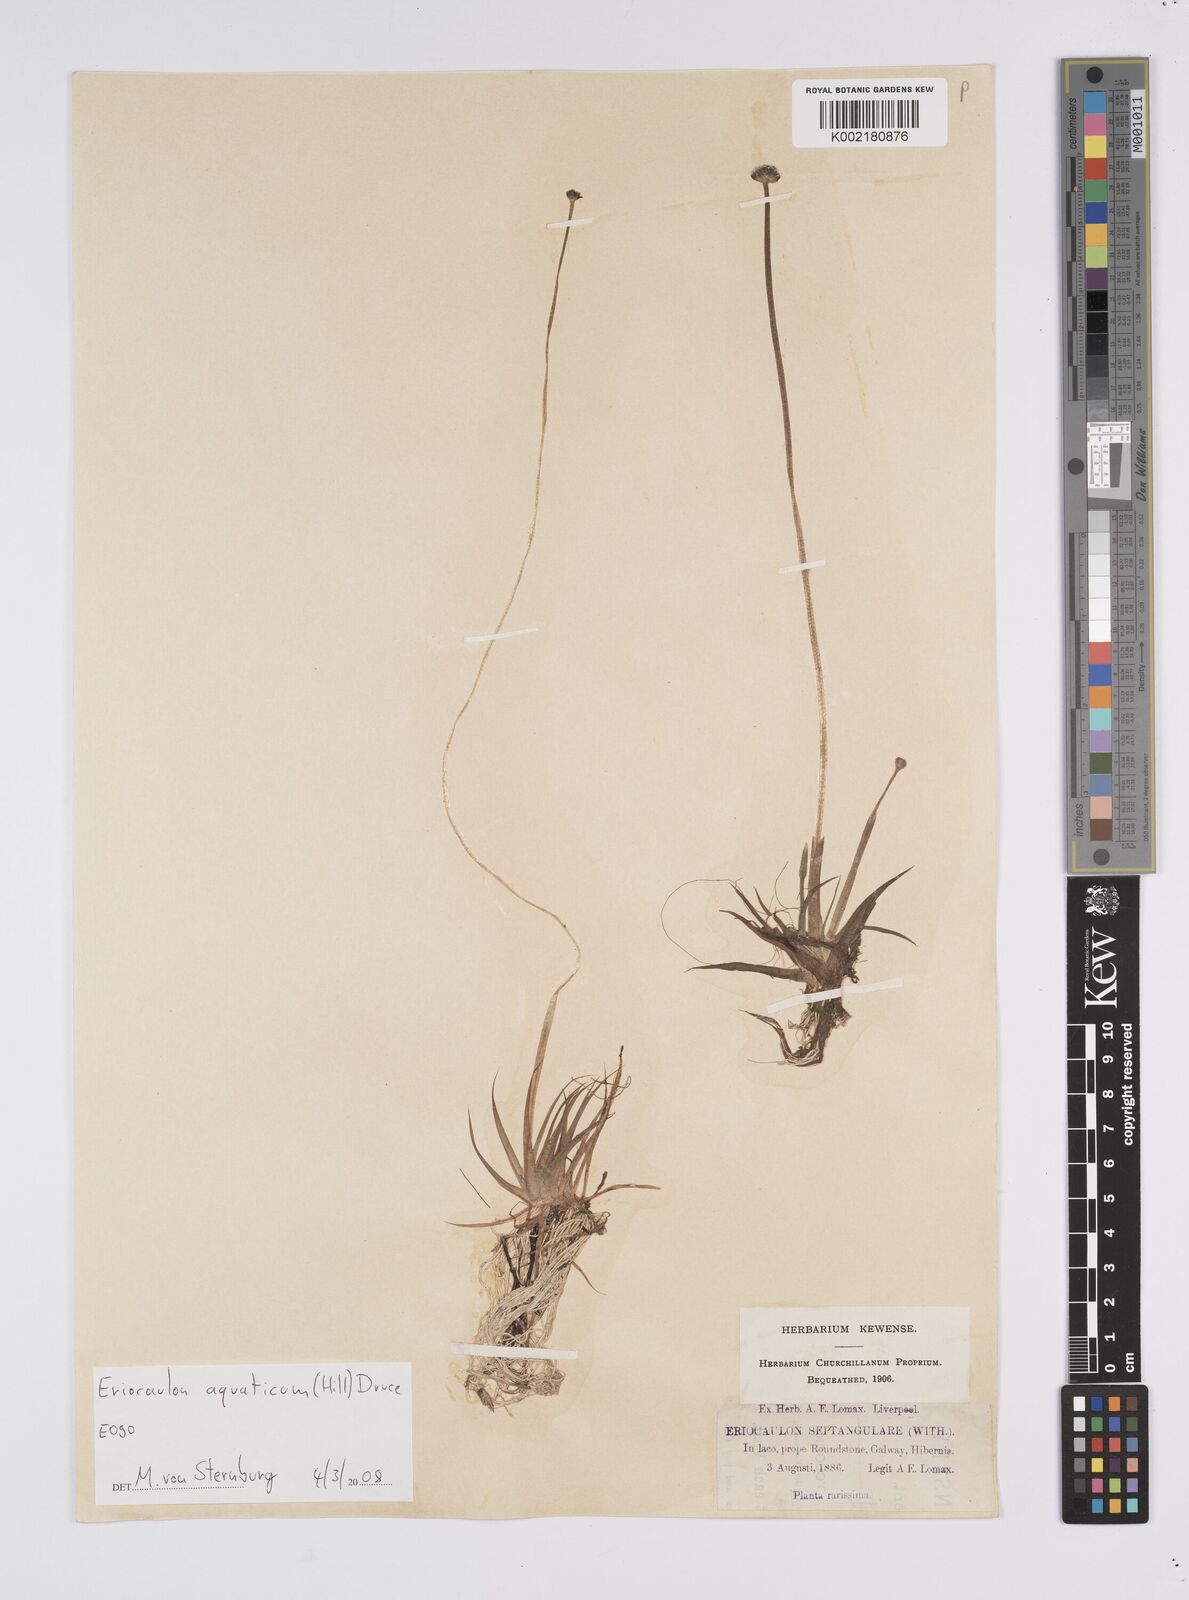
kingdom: Plantae
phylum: Tracheophyta
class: Liliopsida
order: Poales
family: Eriocaulaceae
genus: Eriocaulon
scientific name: Eriocaulon aquaticum
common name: Pipewort
